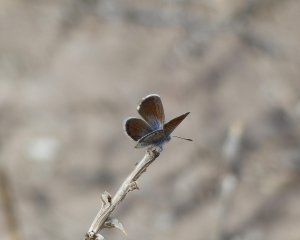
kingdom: Animalia
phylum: Arthropoda
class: Insecta
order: Lepidoptera
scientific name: Lepidoptera
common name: Butterflies
